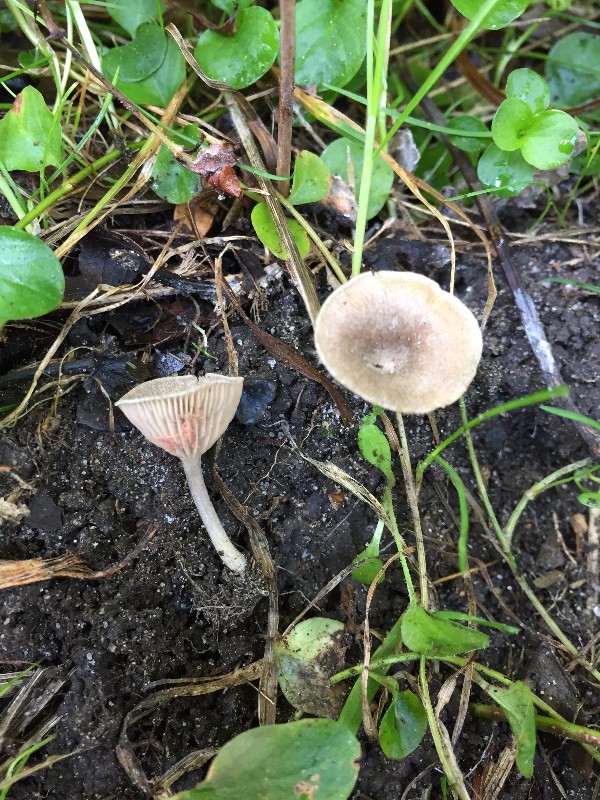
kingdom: Fungi
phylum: Basidiomycota
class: Agaricomycetes
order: Agaricales
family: Entolomataceae
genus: Entoloma
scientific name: Entoloma undatum
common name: bæltet rødblad
